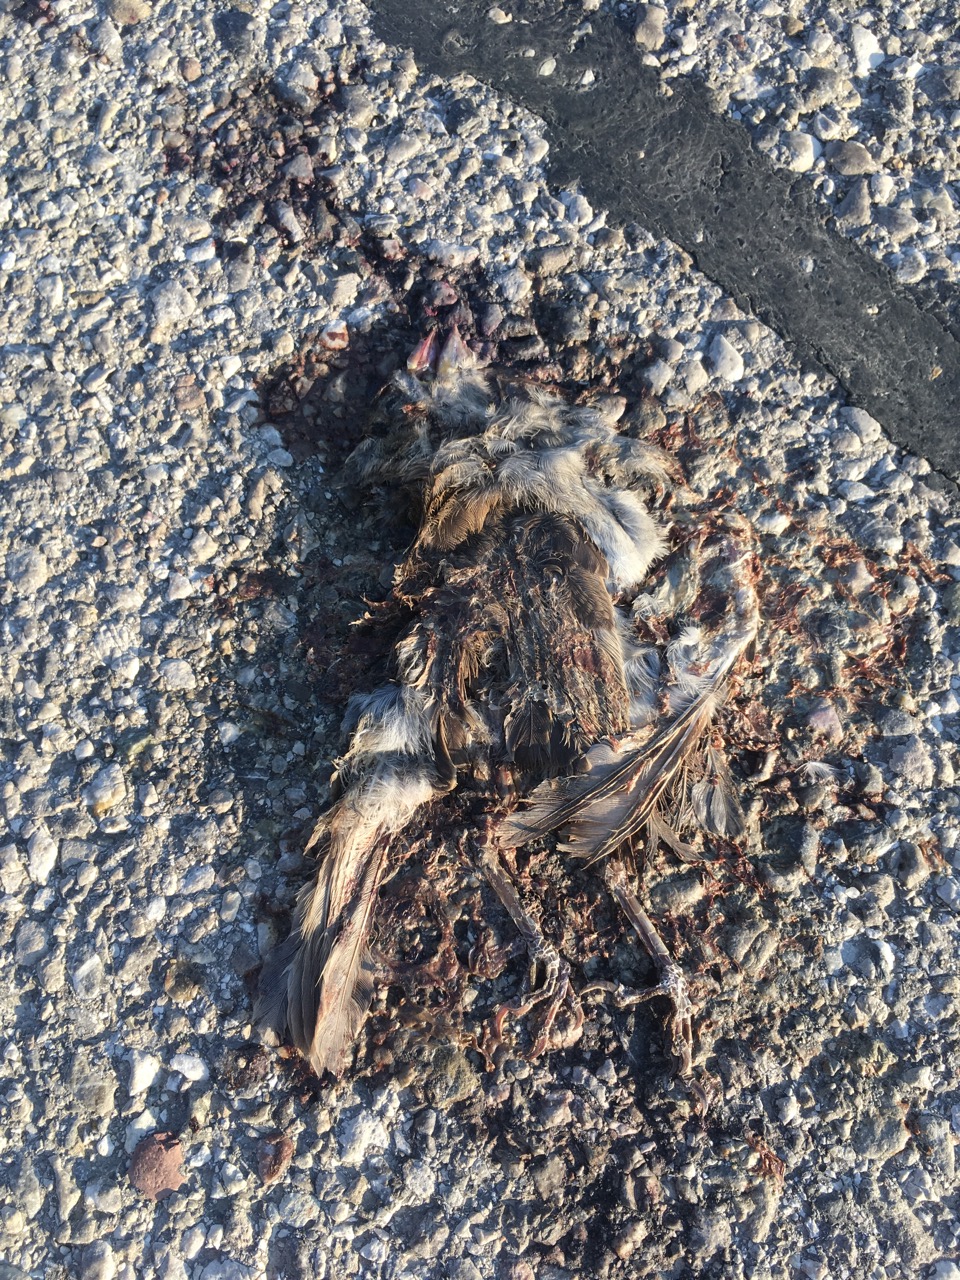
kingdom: Animalia
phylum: Chordata
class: Aves
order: Passeriformes
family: Passeridae
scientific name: Passeridae
